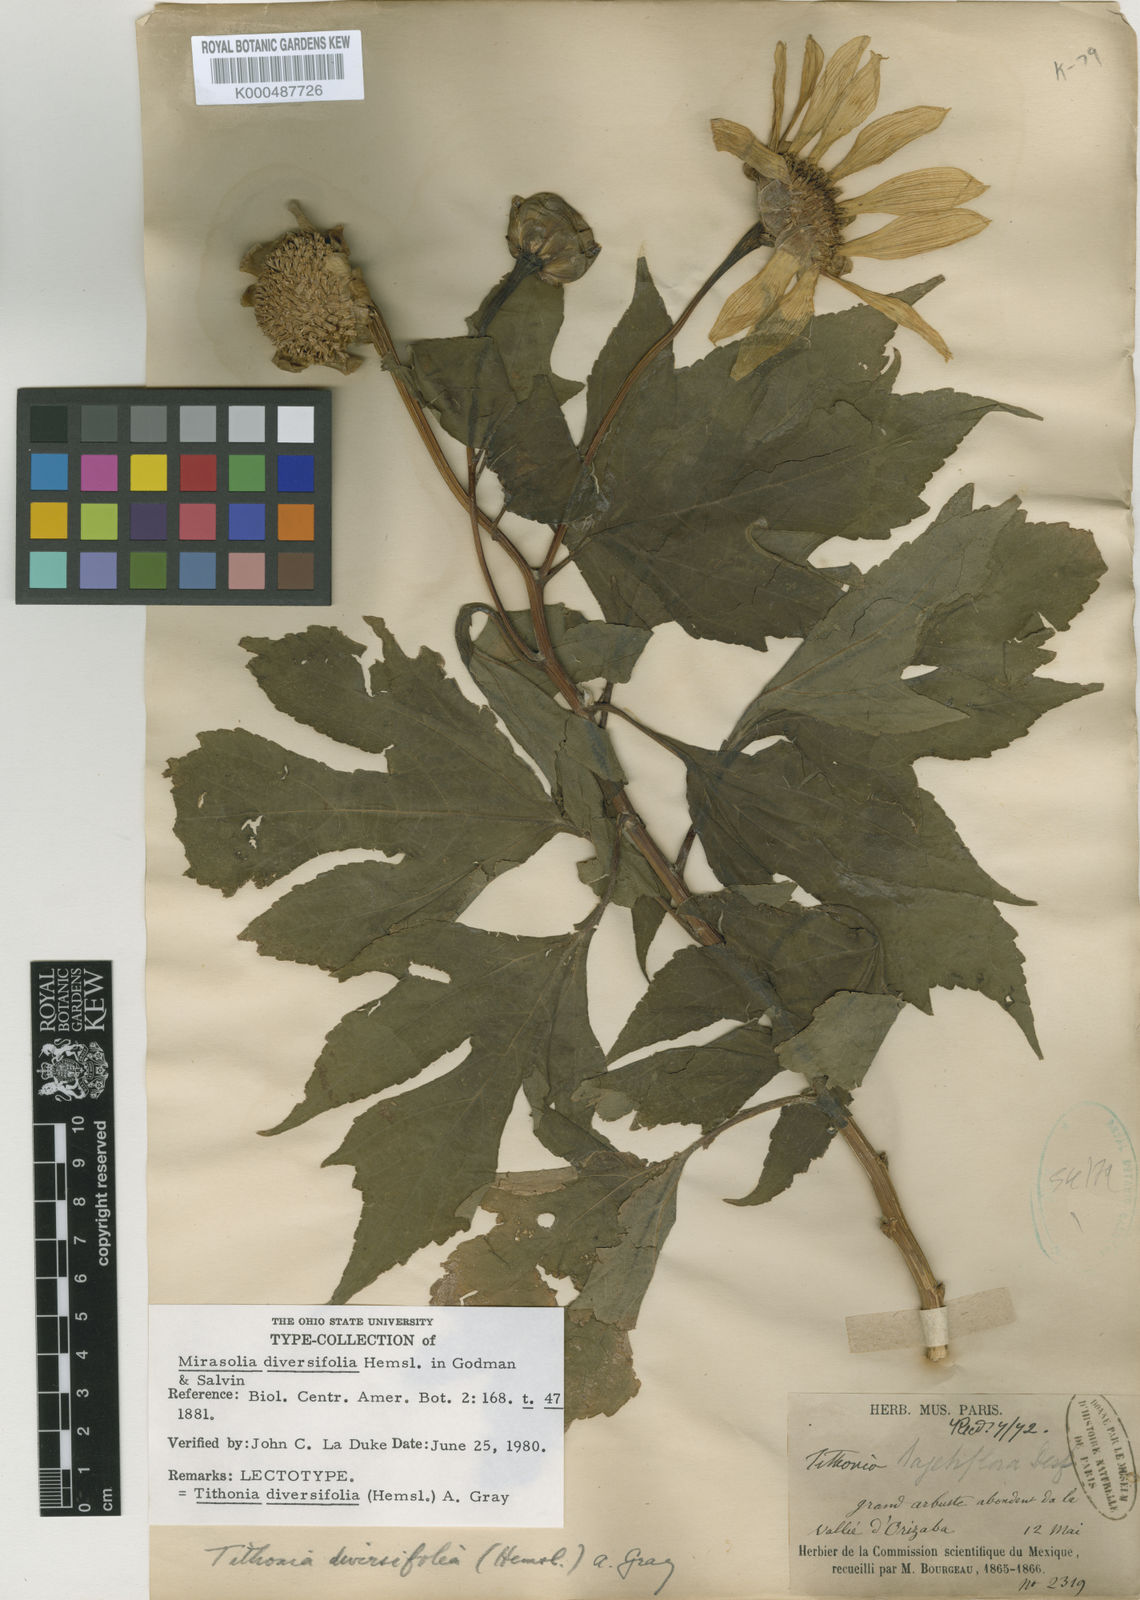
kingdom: Plantae
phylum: Tracheophyta
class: Magnoliopsida
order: Asterales
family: Asteraceae
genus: Tithonia
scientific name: Tithonia diversifolia
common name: Tree marigold
